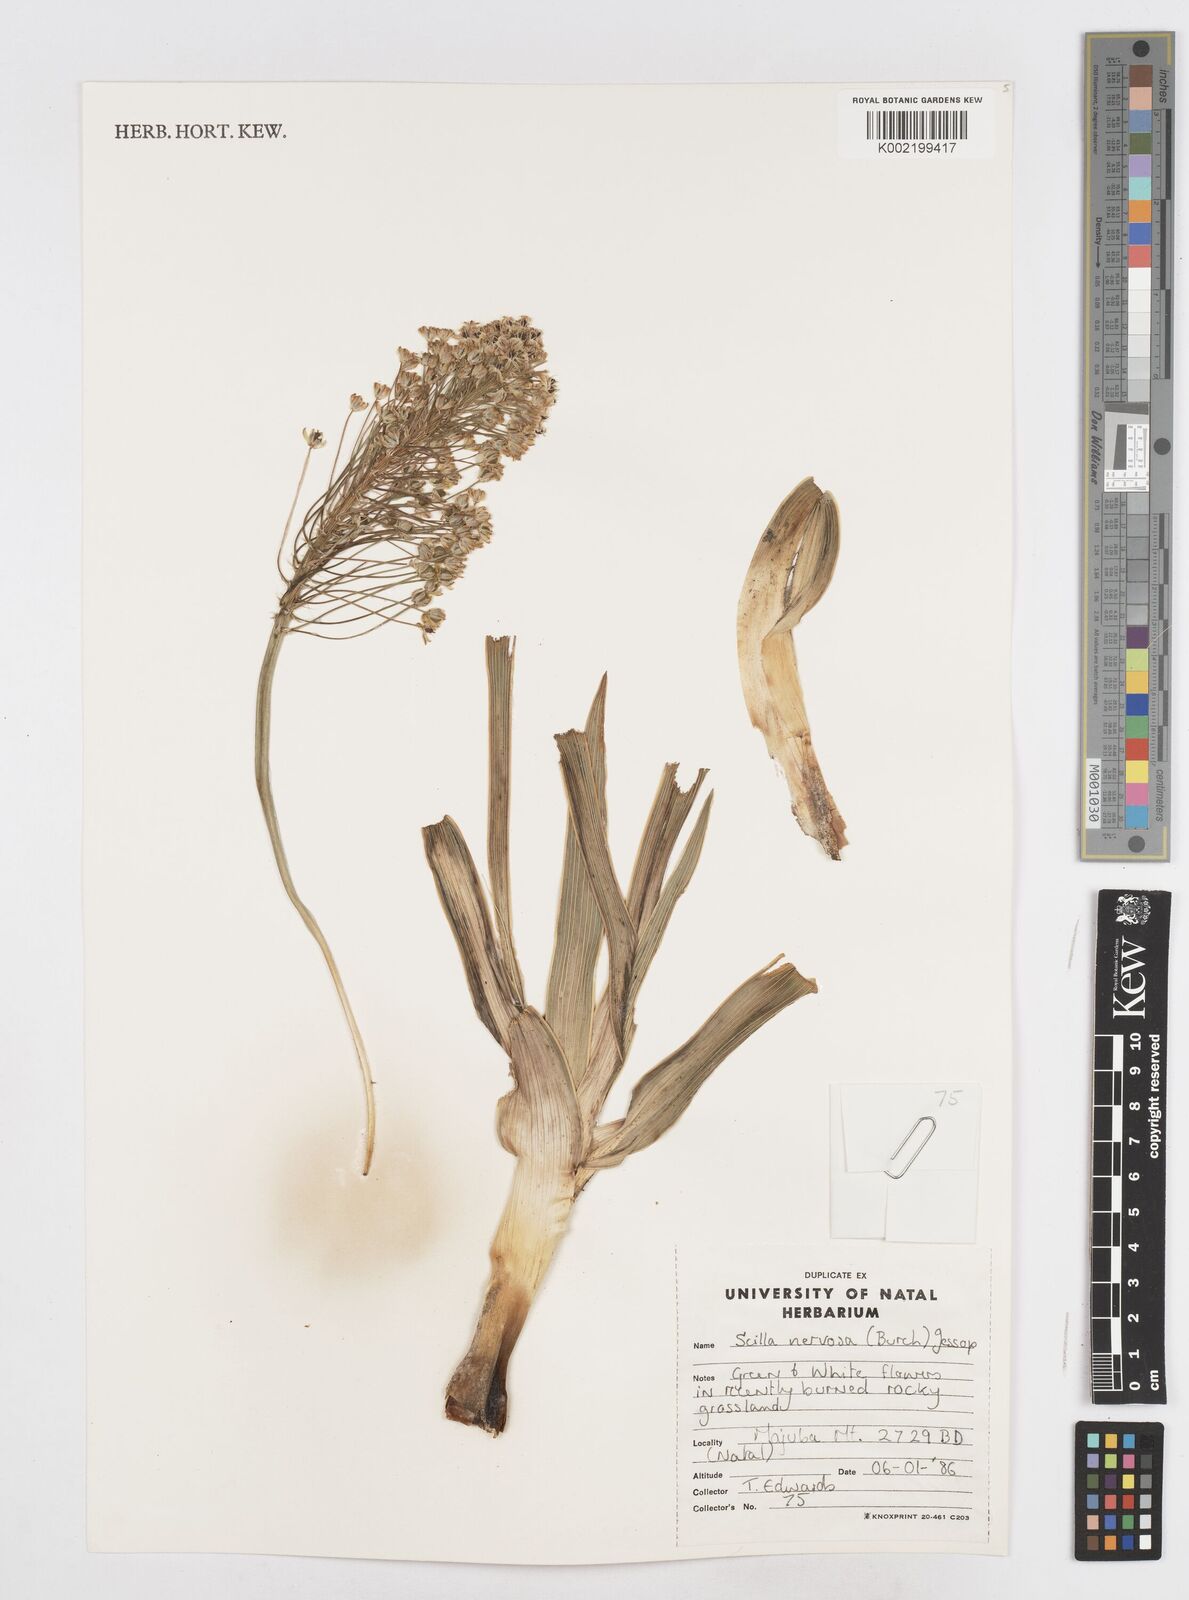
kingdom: Plantae
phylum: Tracheophyta
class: Liliopsida
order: Asparagales
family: Asparagaceae
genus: Schizocarphus
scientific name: Schizocarphus nervosus
